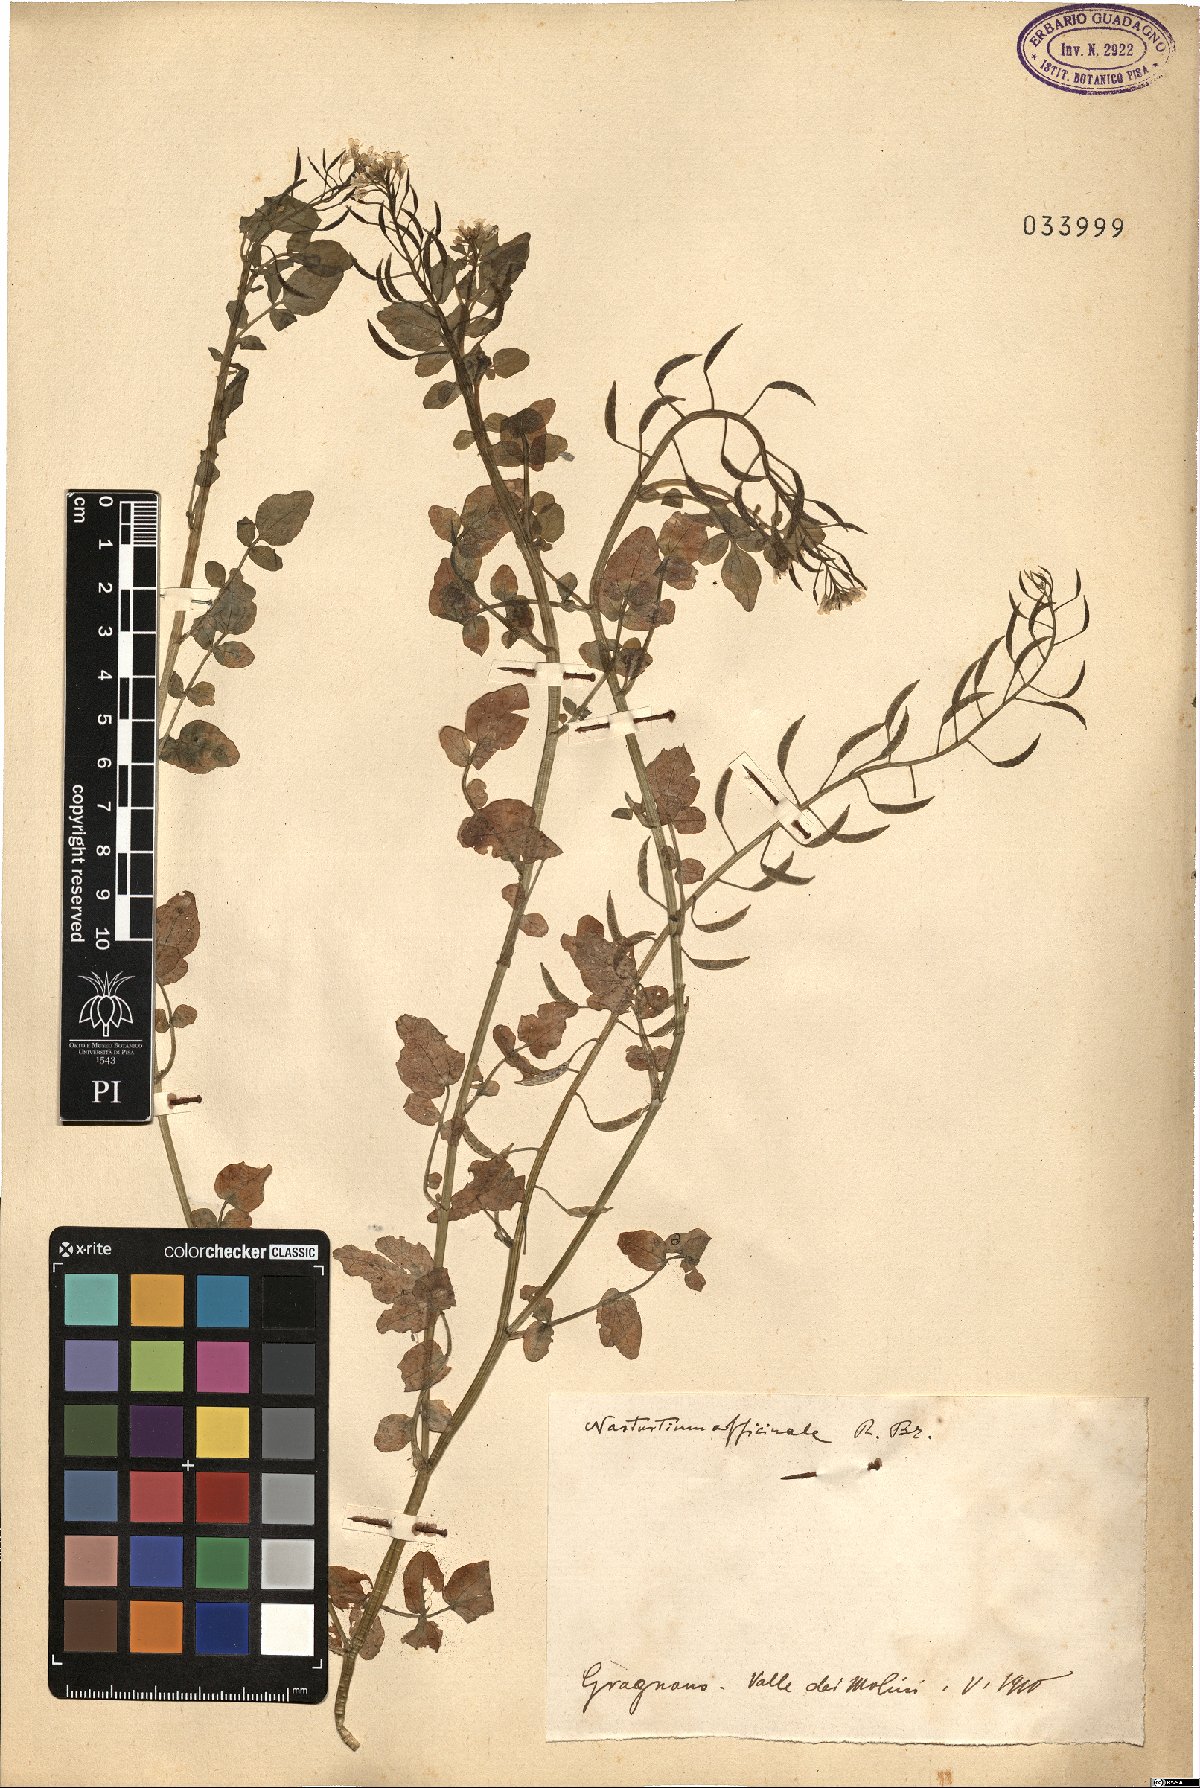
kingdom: Plantae
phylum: Tracheophyta
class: Magnoliopsida
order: Brassicales
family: Brassicaceae
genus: Nasturtium
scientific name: Nasturtium officinale
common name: Watercress
